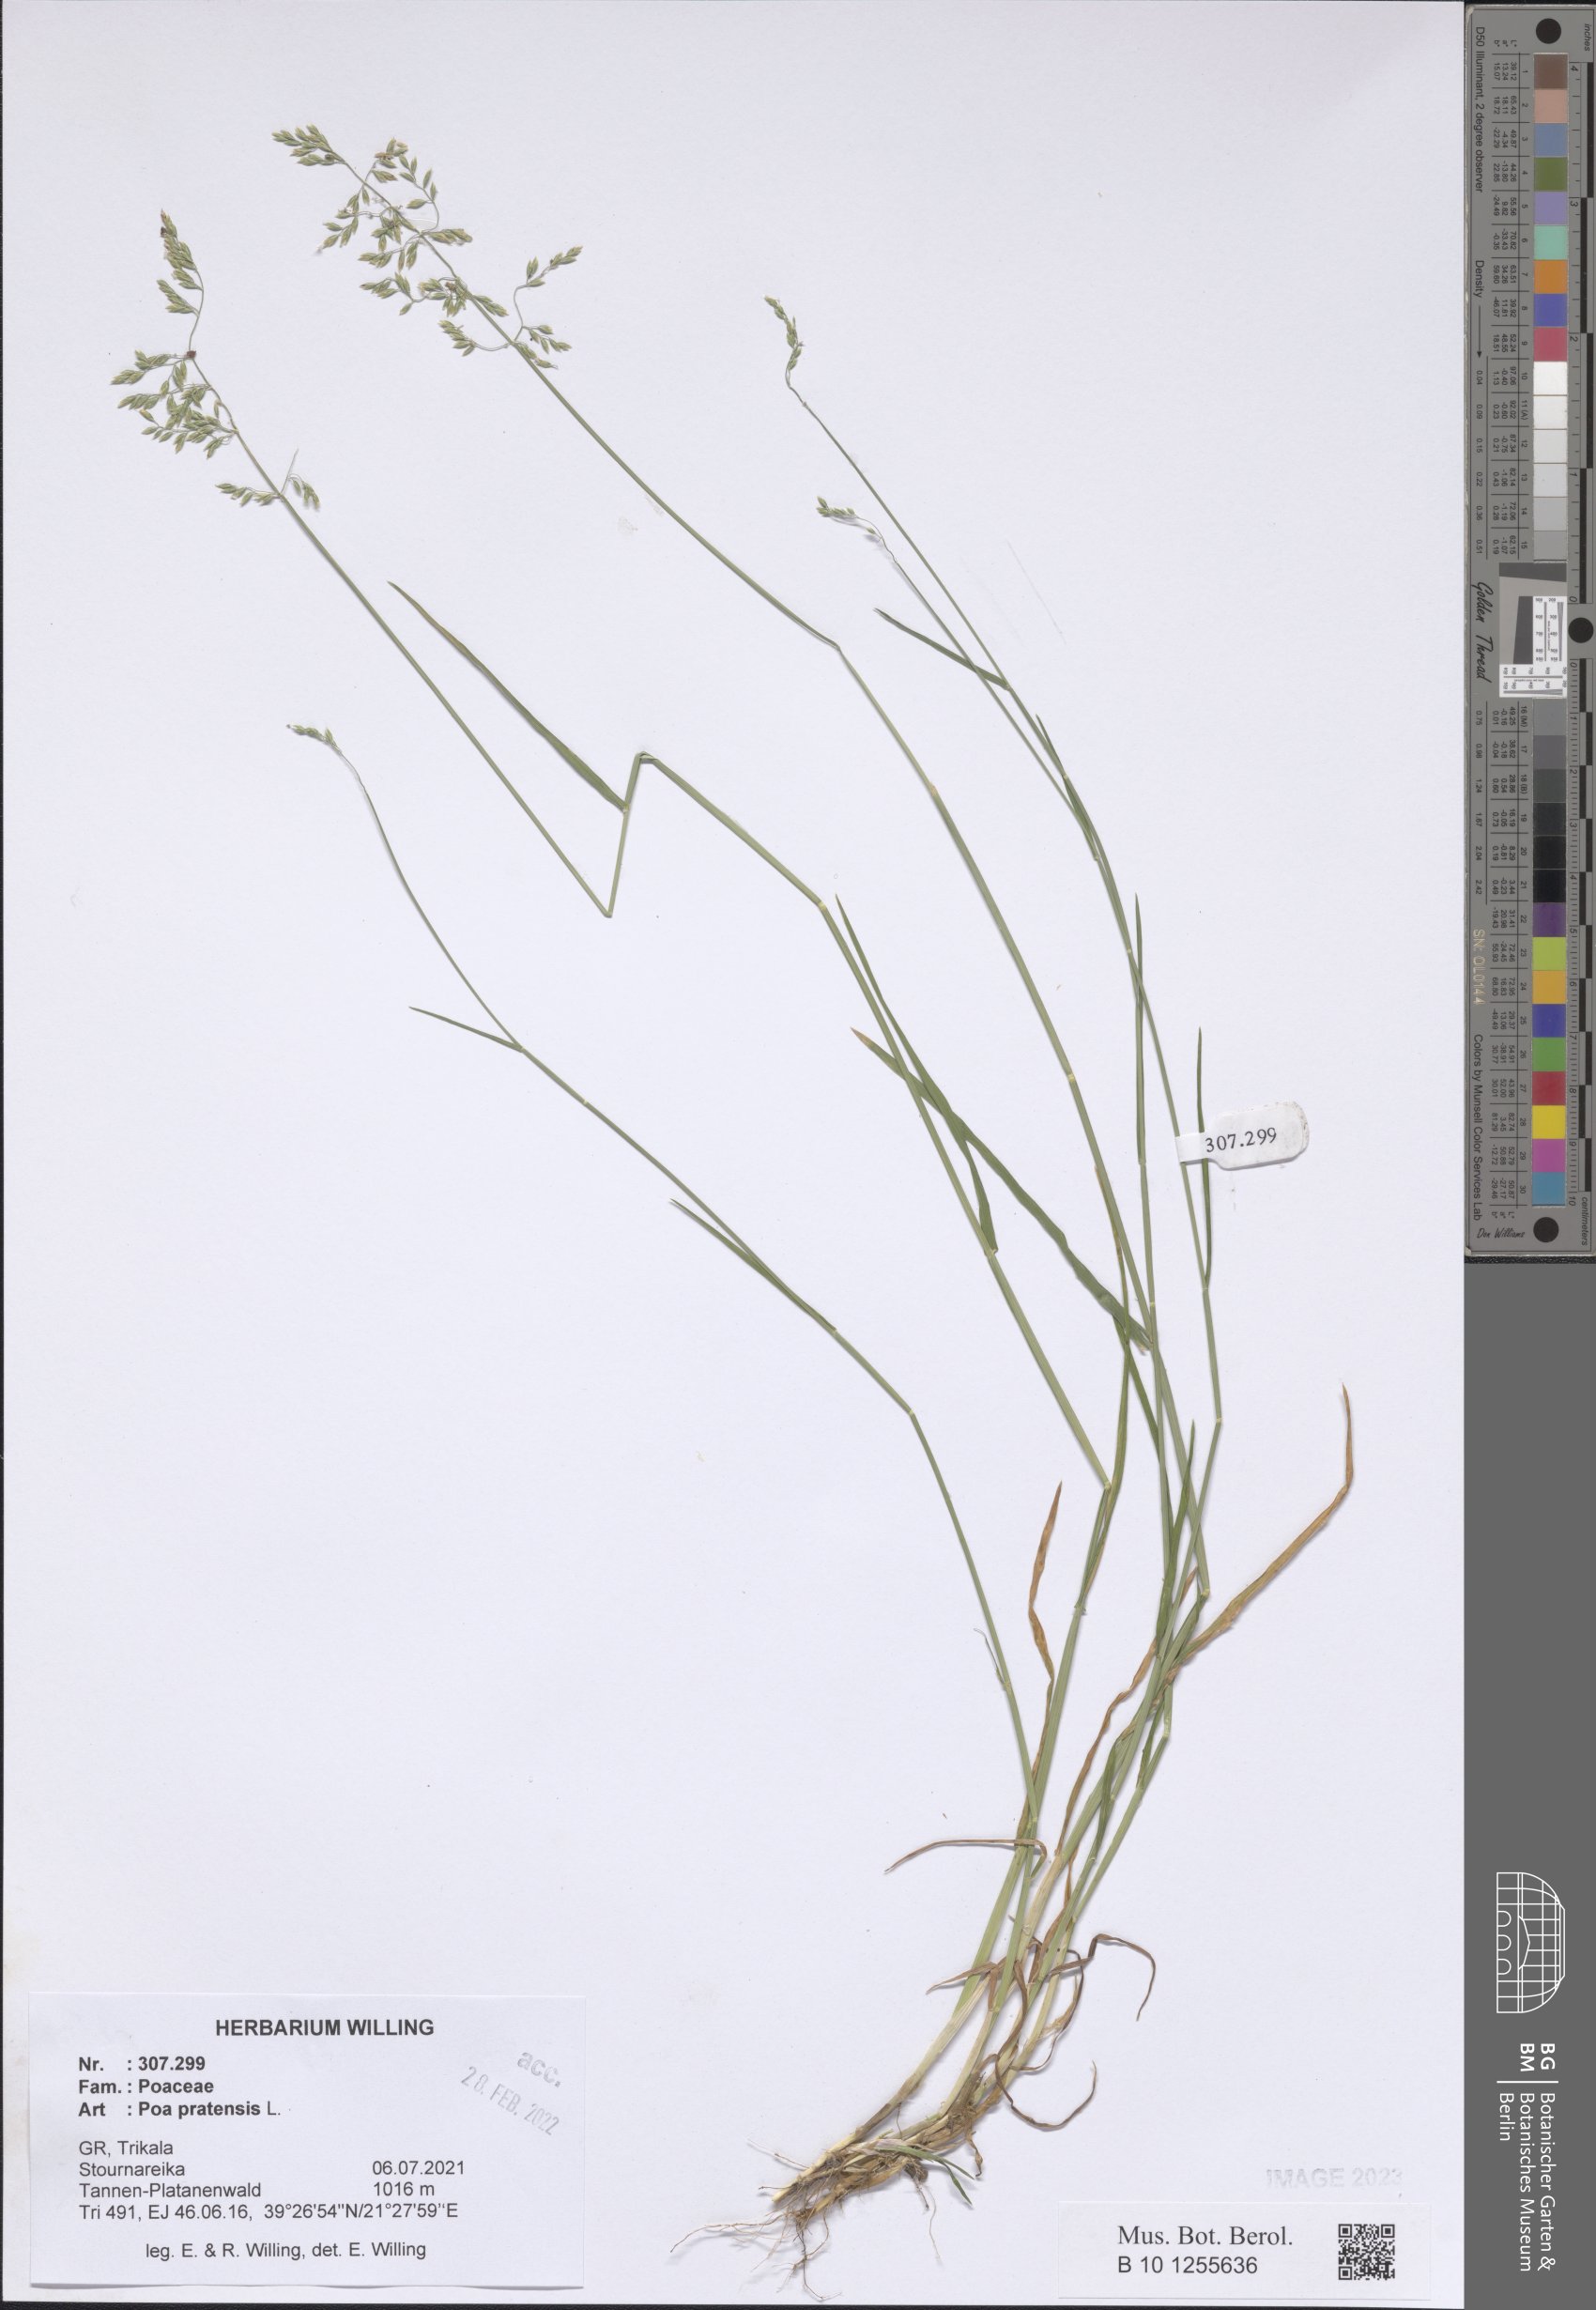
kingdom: Plantae
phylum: Tracheophyta
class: Liliopsida
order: Poales
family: Poaceae
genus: Poa
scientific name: Poa pratensis
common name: Kentucky bluegrass
